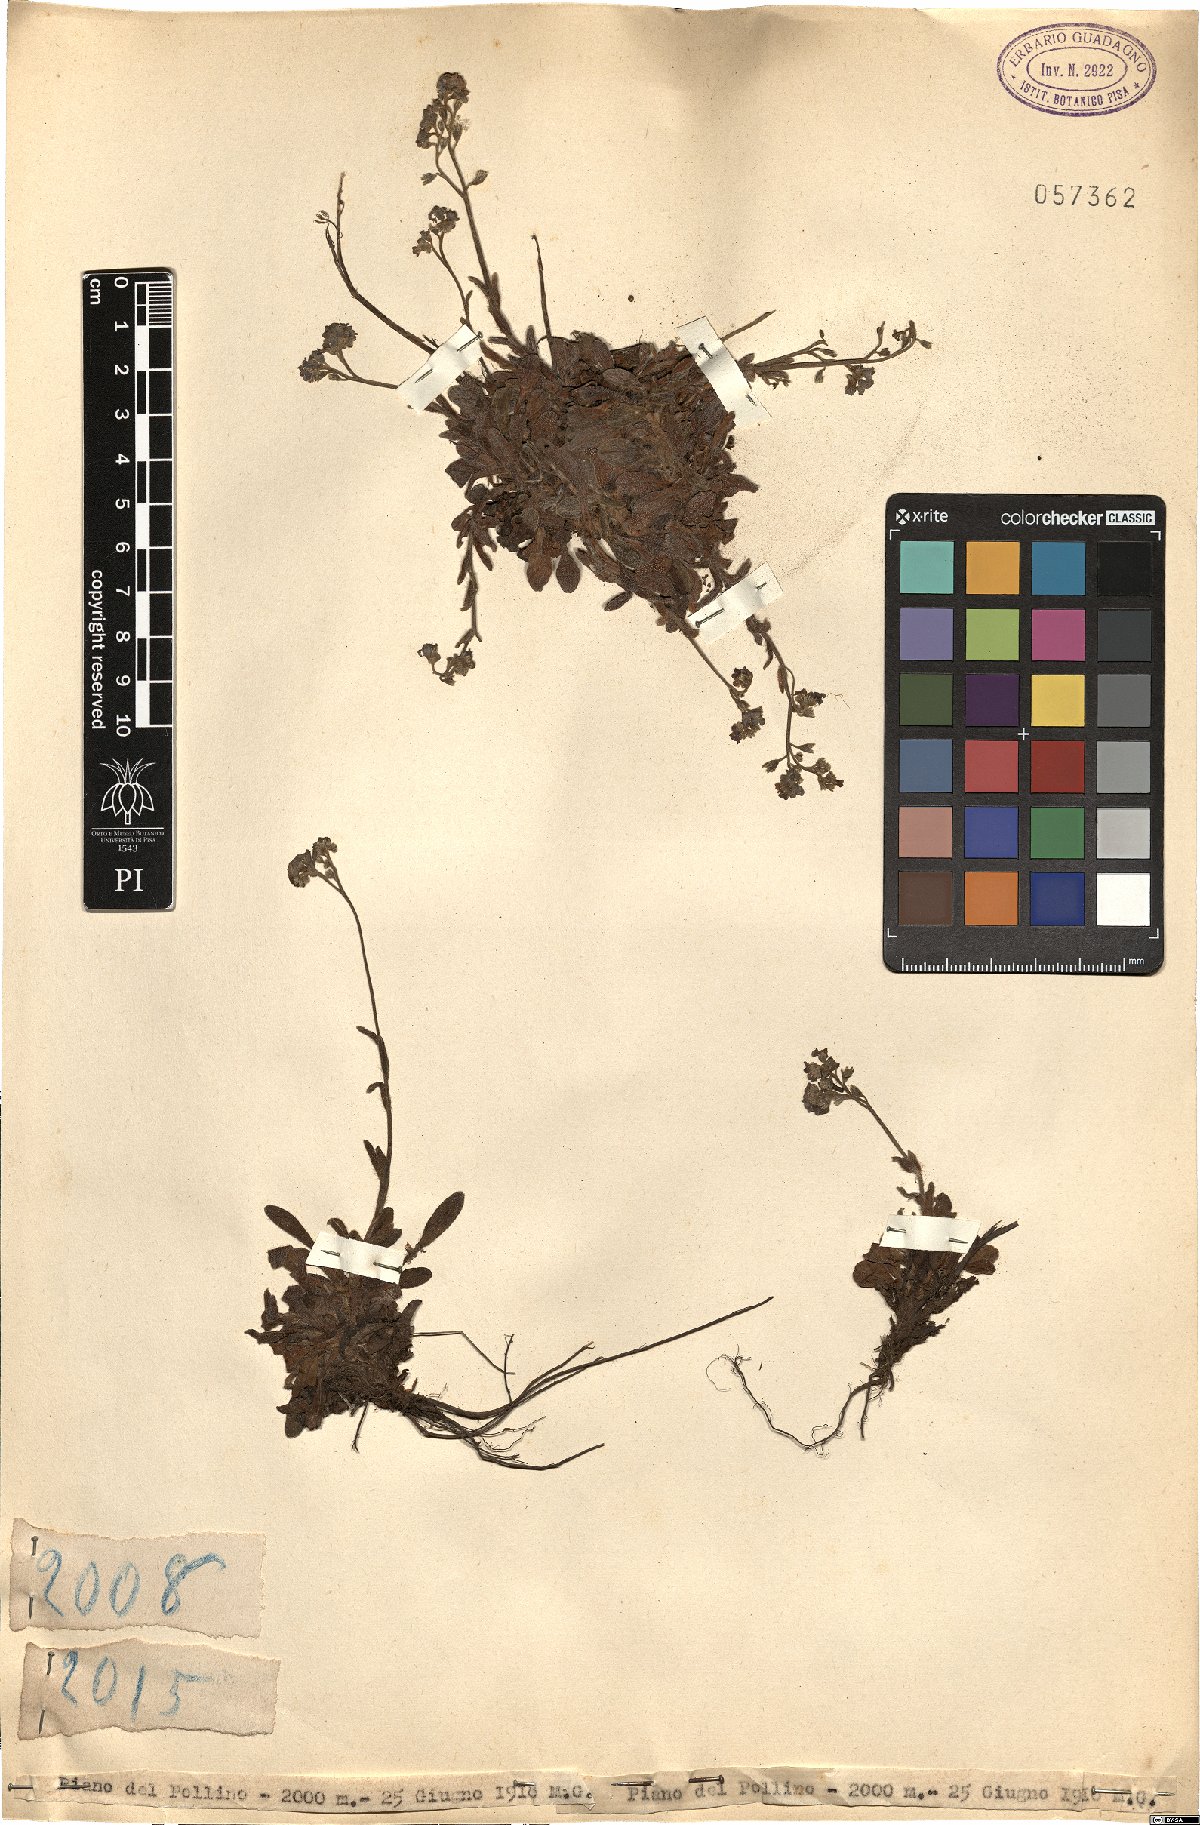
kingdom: Plantae
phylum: Tracheophyta
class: Magnoliopsida
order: Boraginales
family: Boraginaceae
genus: Myosotis
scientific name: Myosotis
